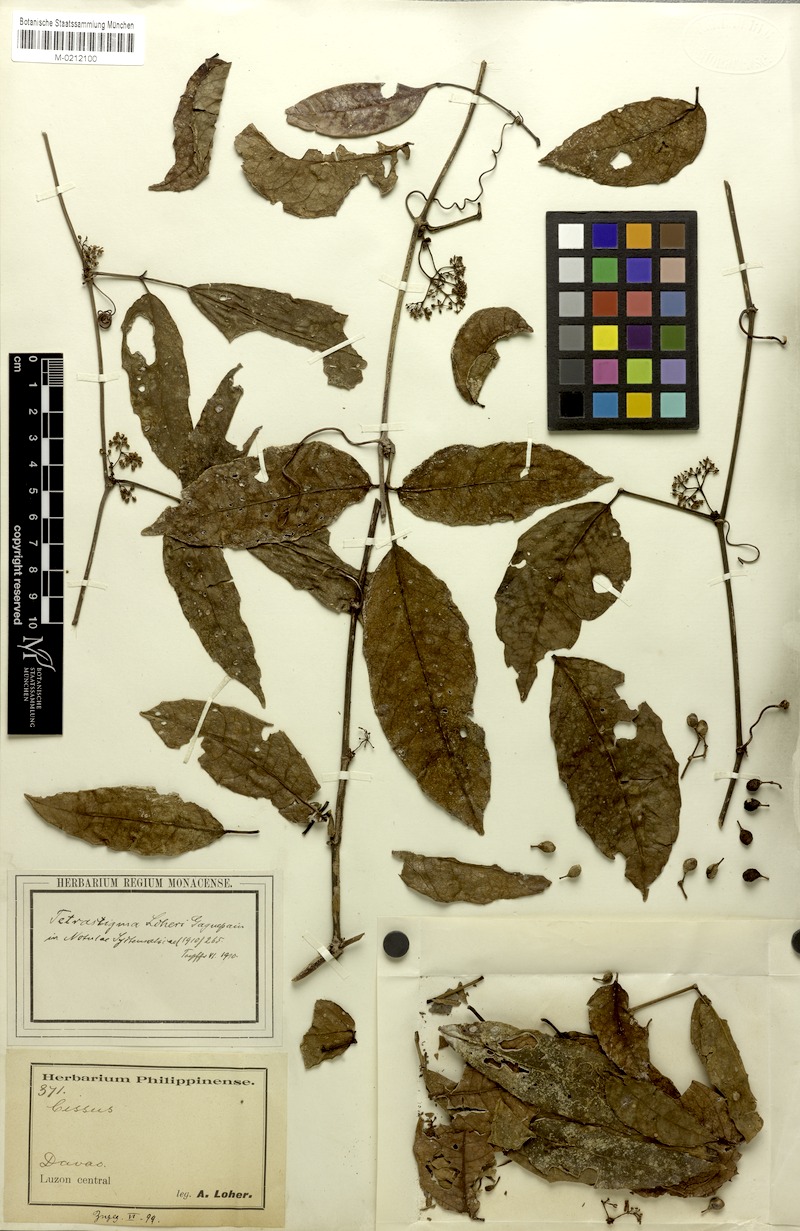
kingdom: Plantae
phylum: Tracheophyta
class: Magnoliopsida
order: Vitales
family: Vitaceae
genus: Tetrastigma
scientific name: Tetrastigma loheri
